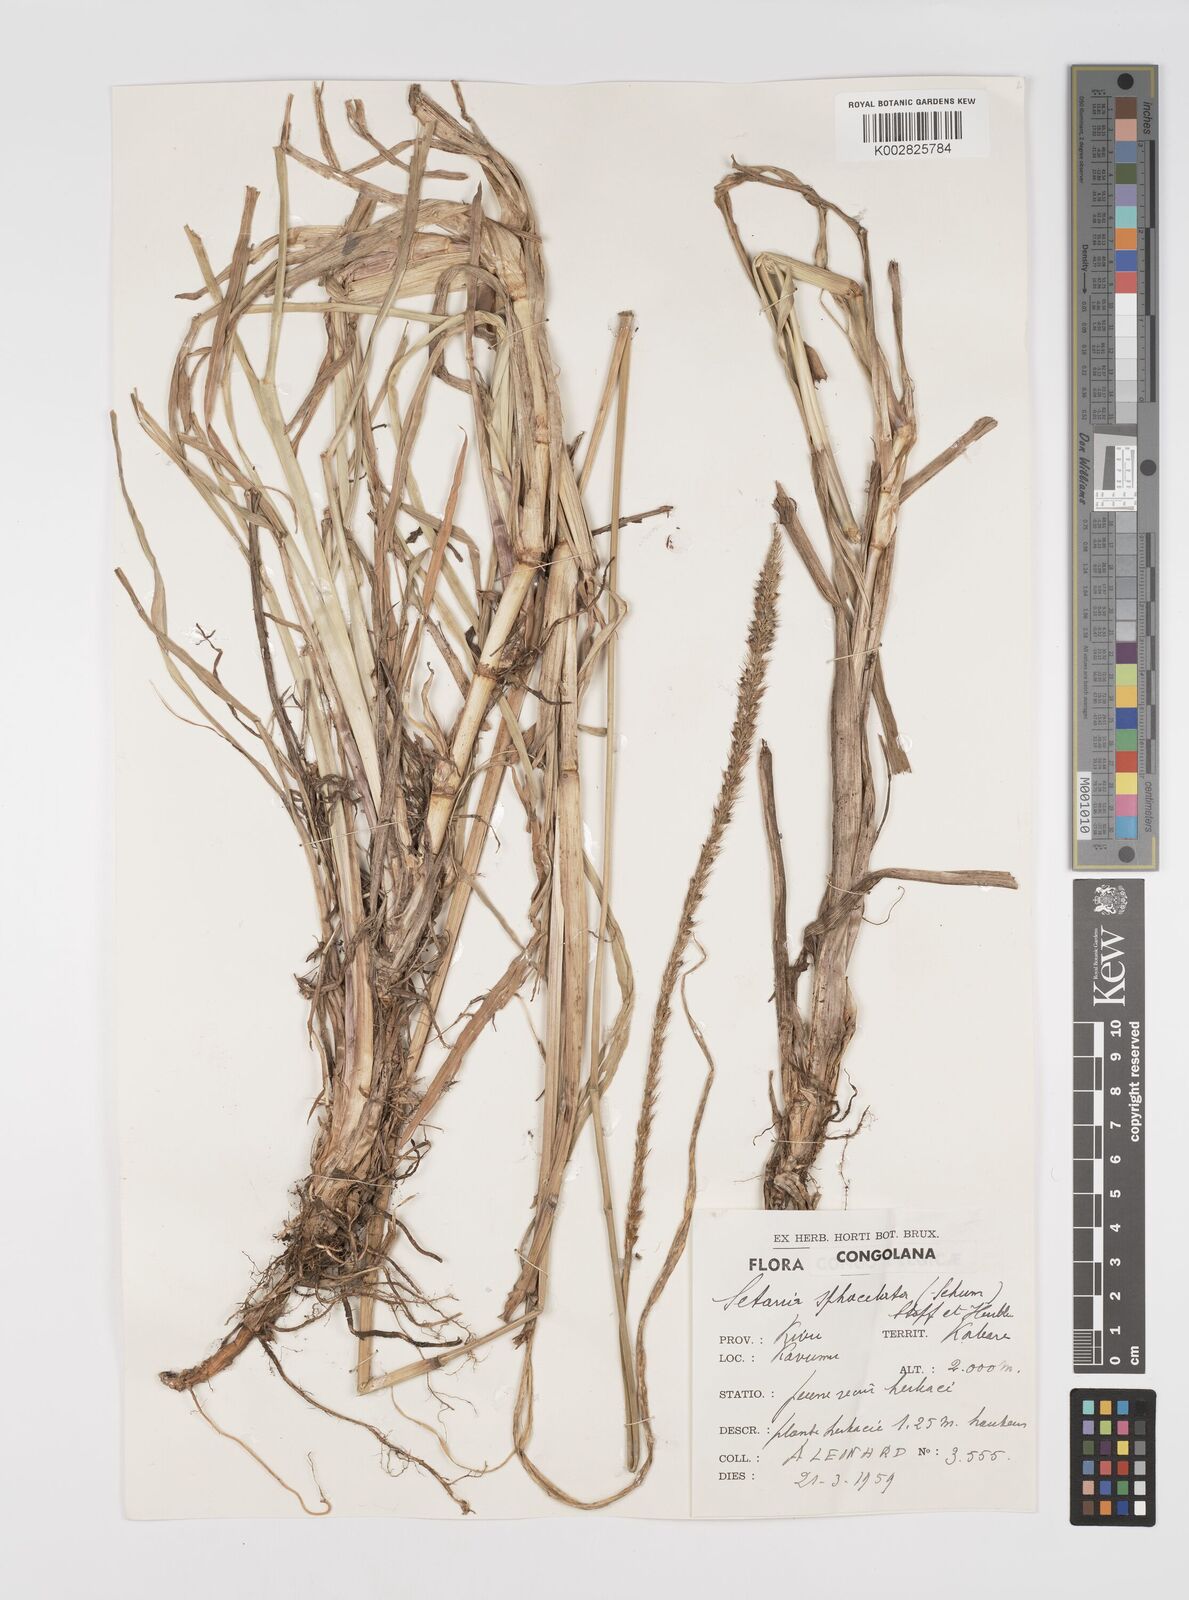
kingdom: Plantae
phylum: Tracheophyta
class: Liliopsida
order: Poales
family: Poaceae
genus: Setaria
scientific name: Setaria sphacelata
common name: African bristlegrass
